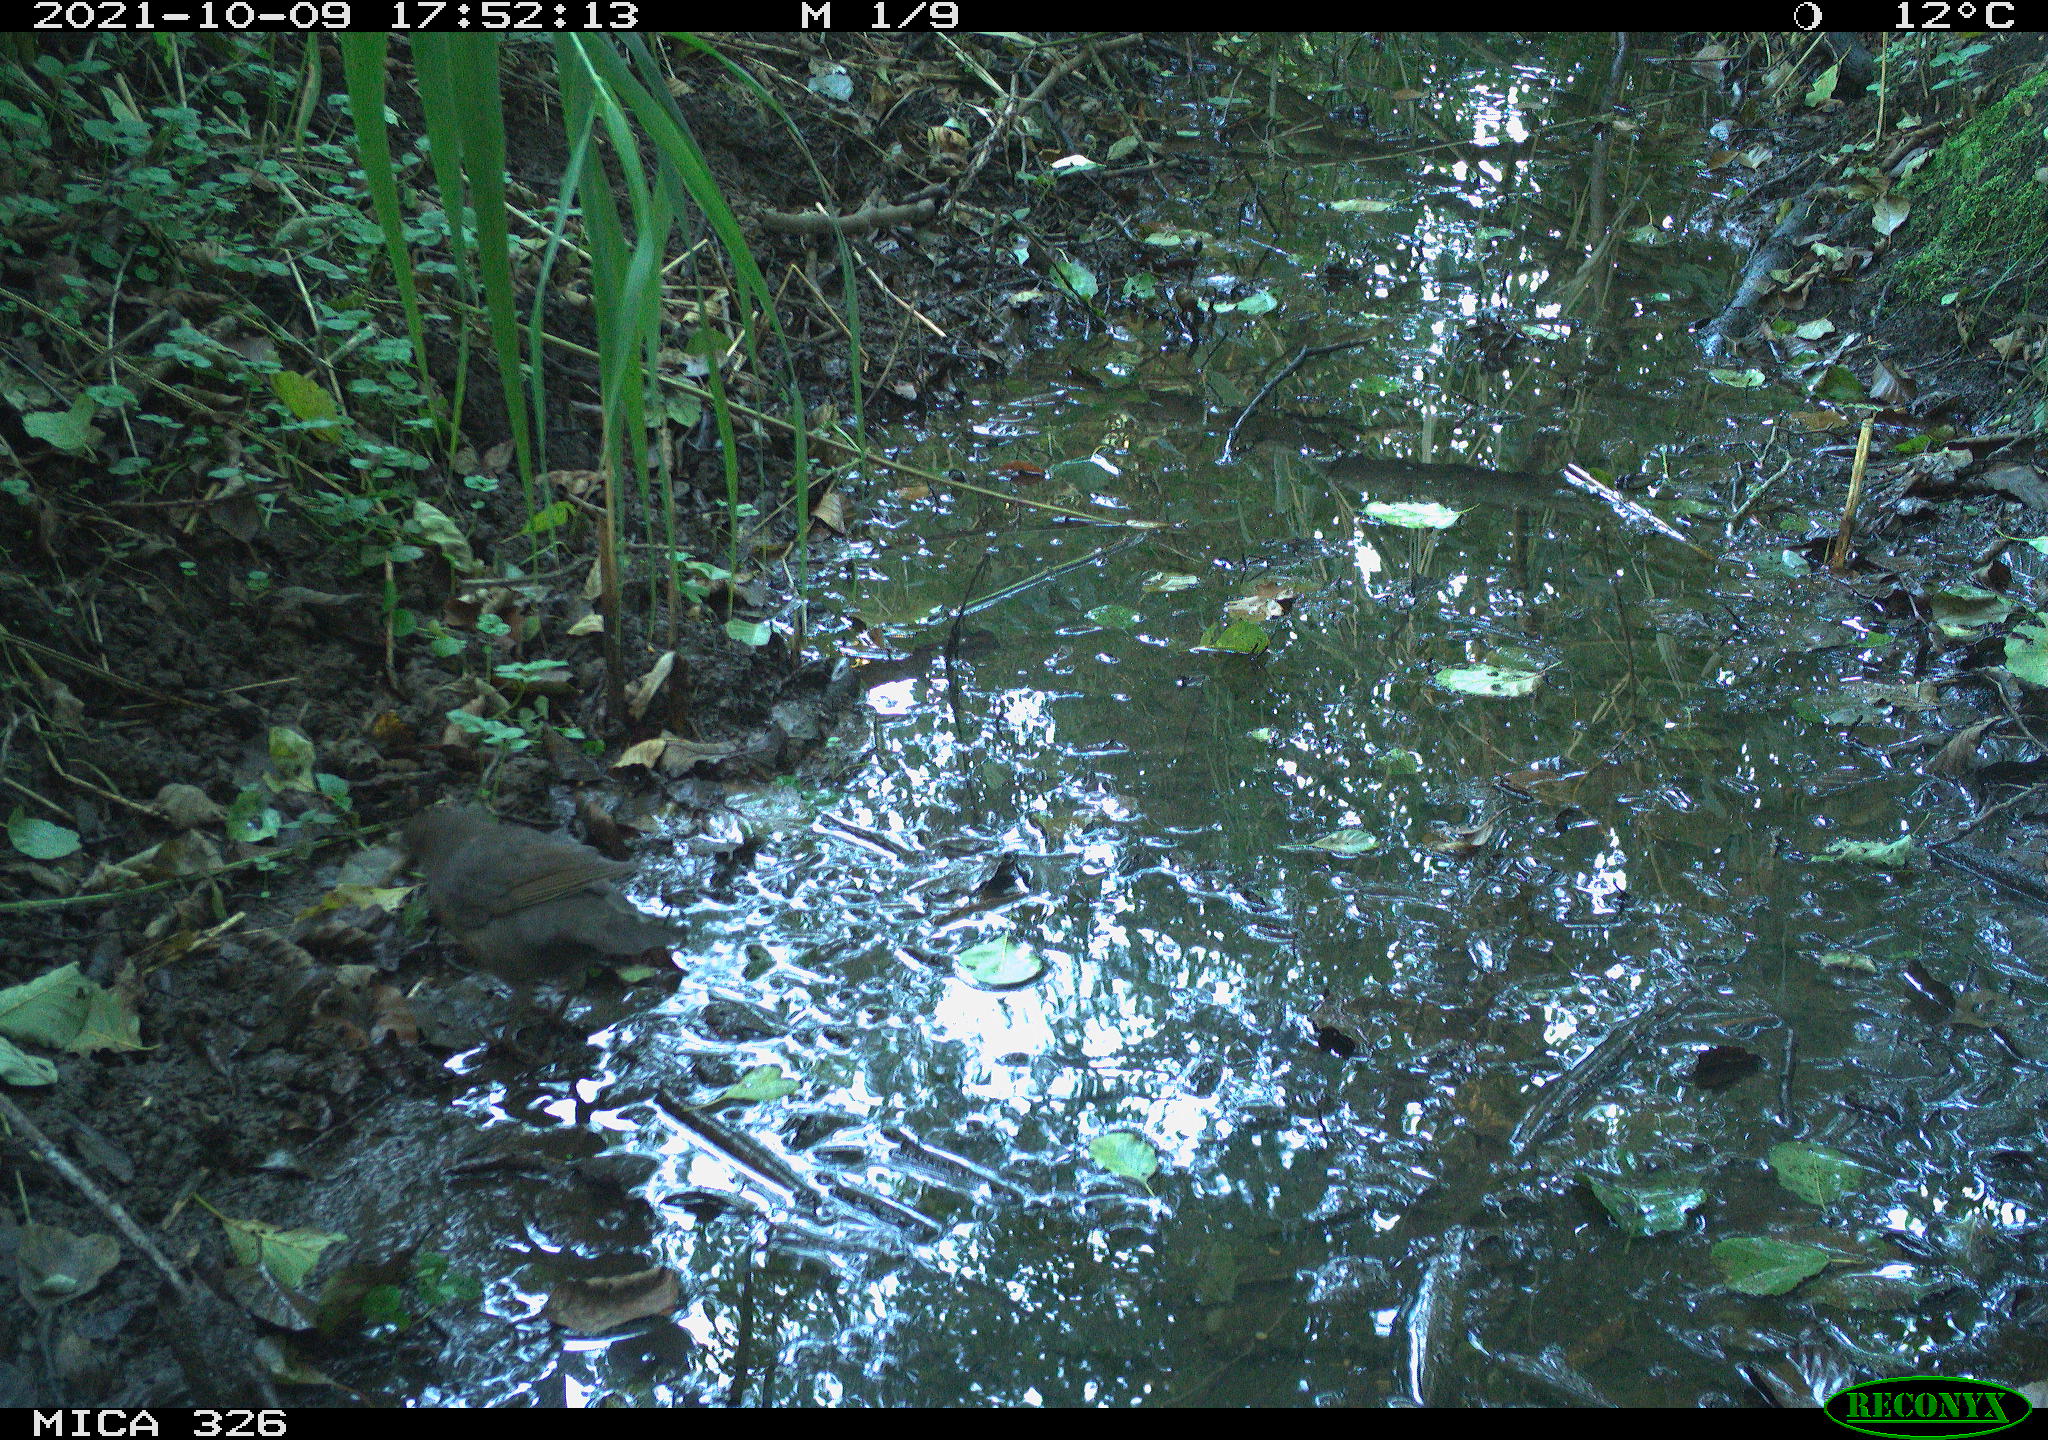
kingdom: Animalia
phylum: Chordata
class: Aves
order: Passeriformes
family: Turdidae
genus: Turdus
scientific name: Turdus merula
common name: Common blackbird
